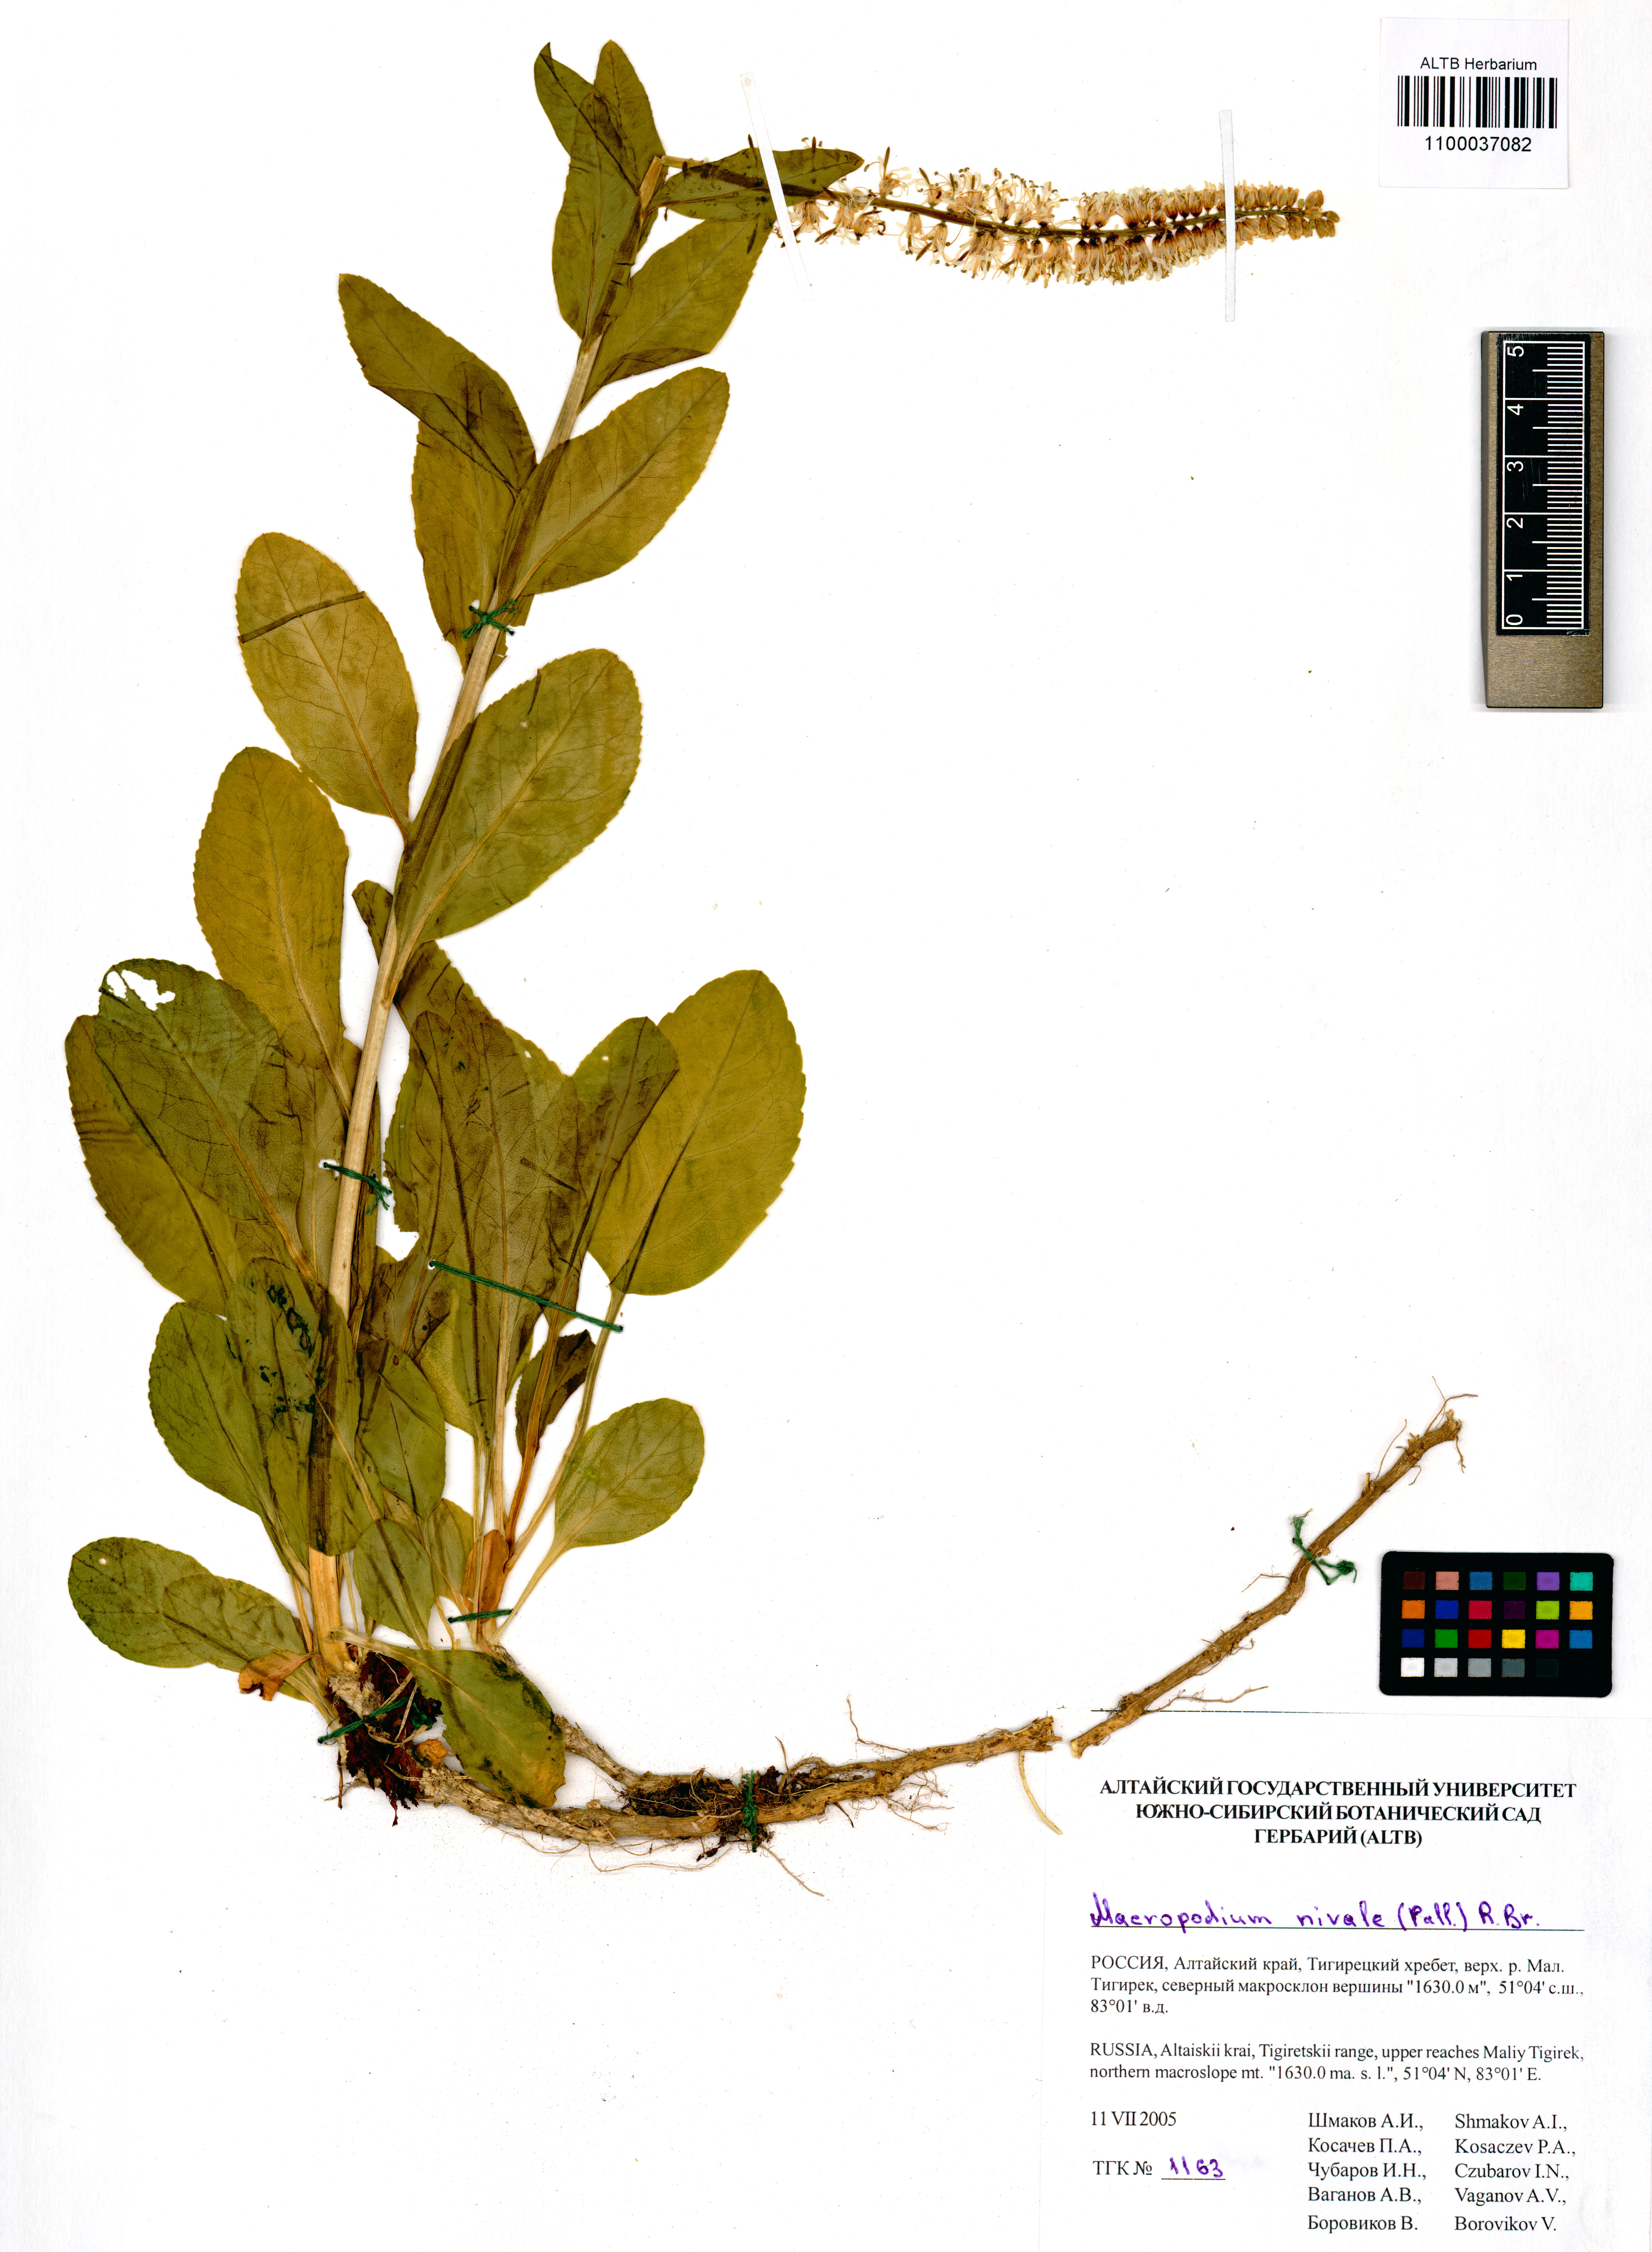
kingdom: Plantae
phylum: Tracheophyta
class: Magnoliopsida
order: Brassicales
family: Brassicaceae
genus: Macropodium
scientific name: Macropodium nivale
